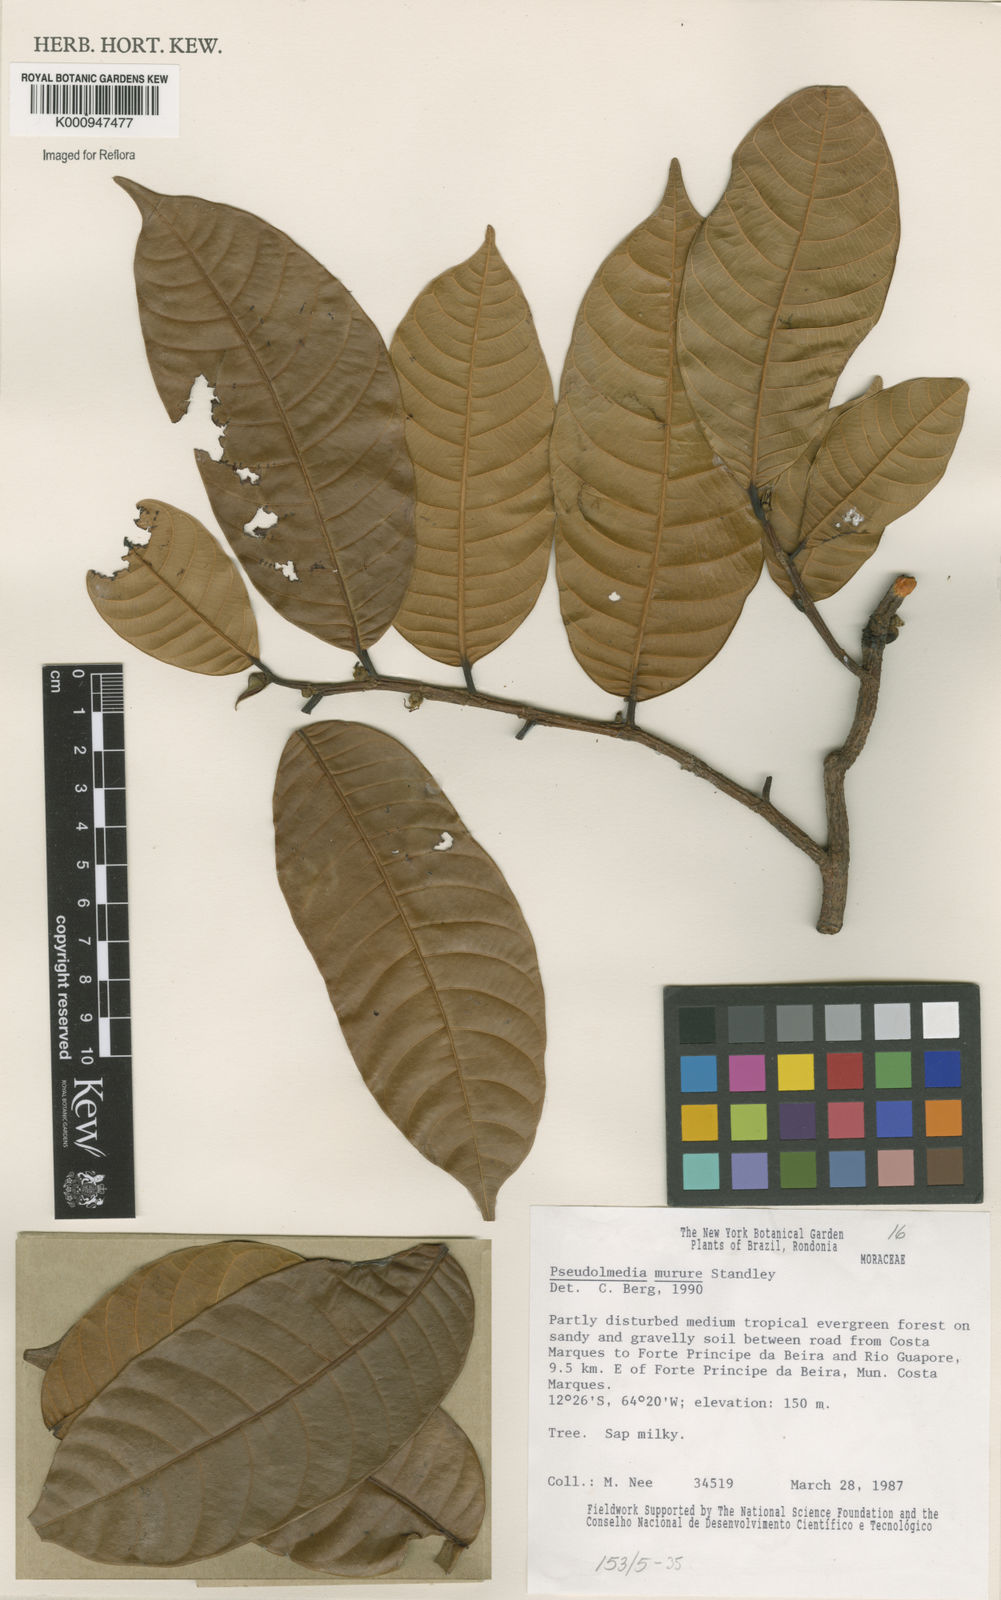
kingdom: Plantae
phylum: Tracheophyta
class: Magnoliopsida
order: Rosales
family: Moraceae
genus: Pseudolmedia
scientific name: Pseudolmedia macrophylla
